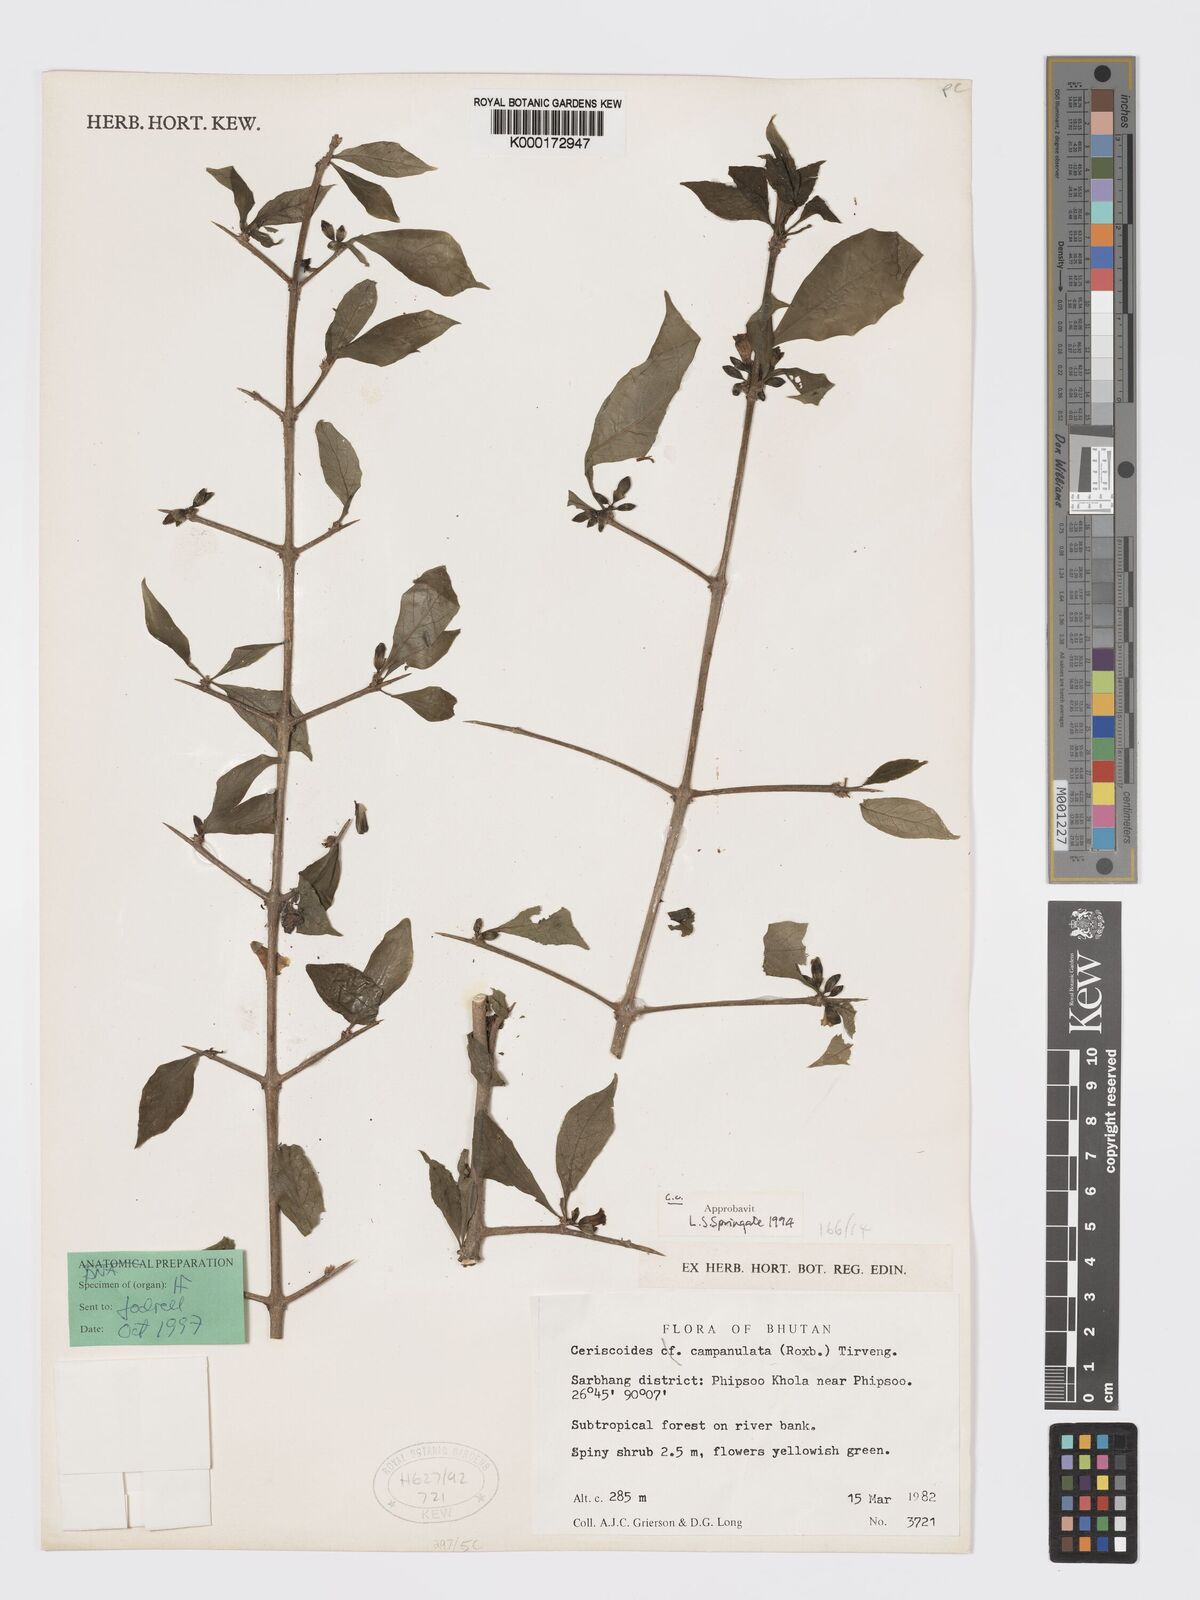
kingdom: Plantae
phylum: Tracheophyta
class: Magnoliopsida
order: Gentianales
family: Rubiaceae
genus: Ceriscoides
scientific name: Ceriscoides campanulata
